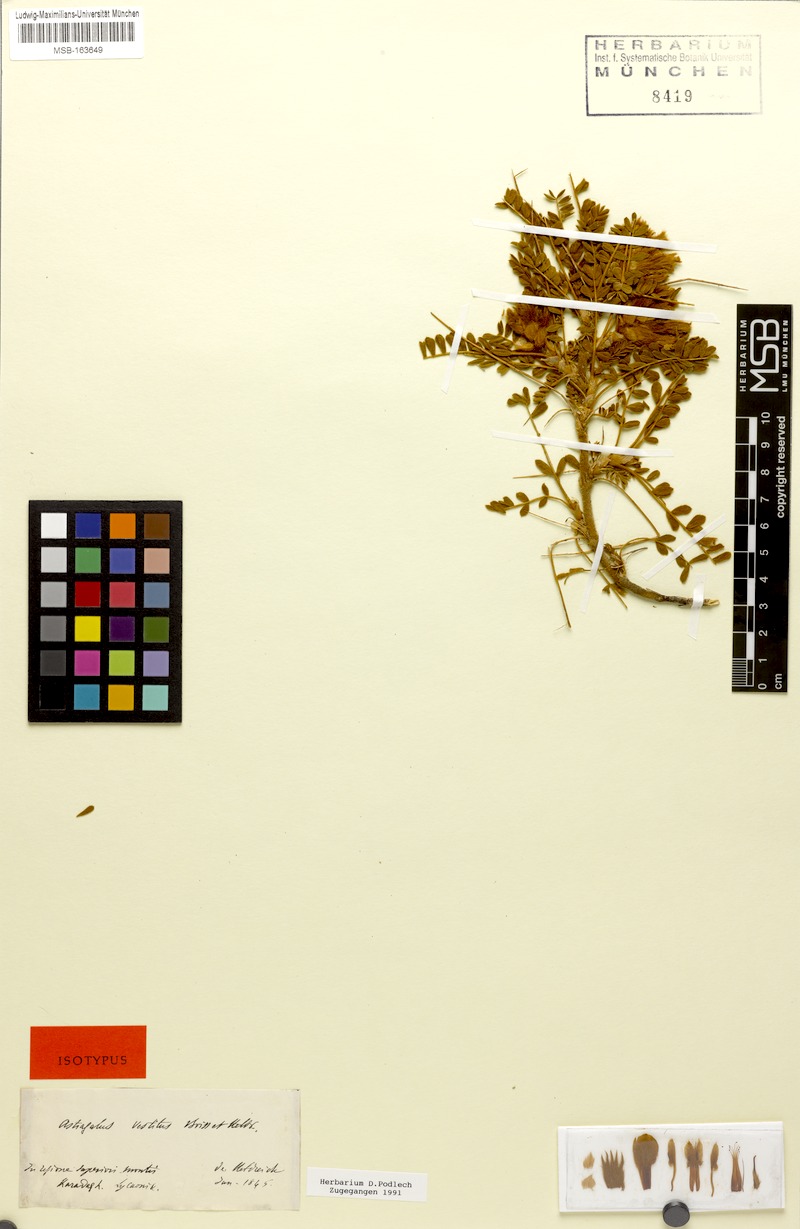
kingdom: Plantae
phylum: Tracheophyta
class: Magnoliopsida
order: Fabales
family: Fabaceae
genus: Astragalus
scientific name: Astragalus vestitus
